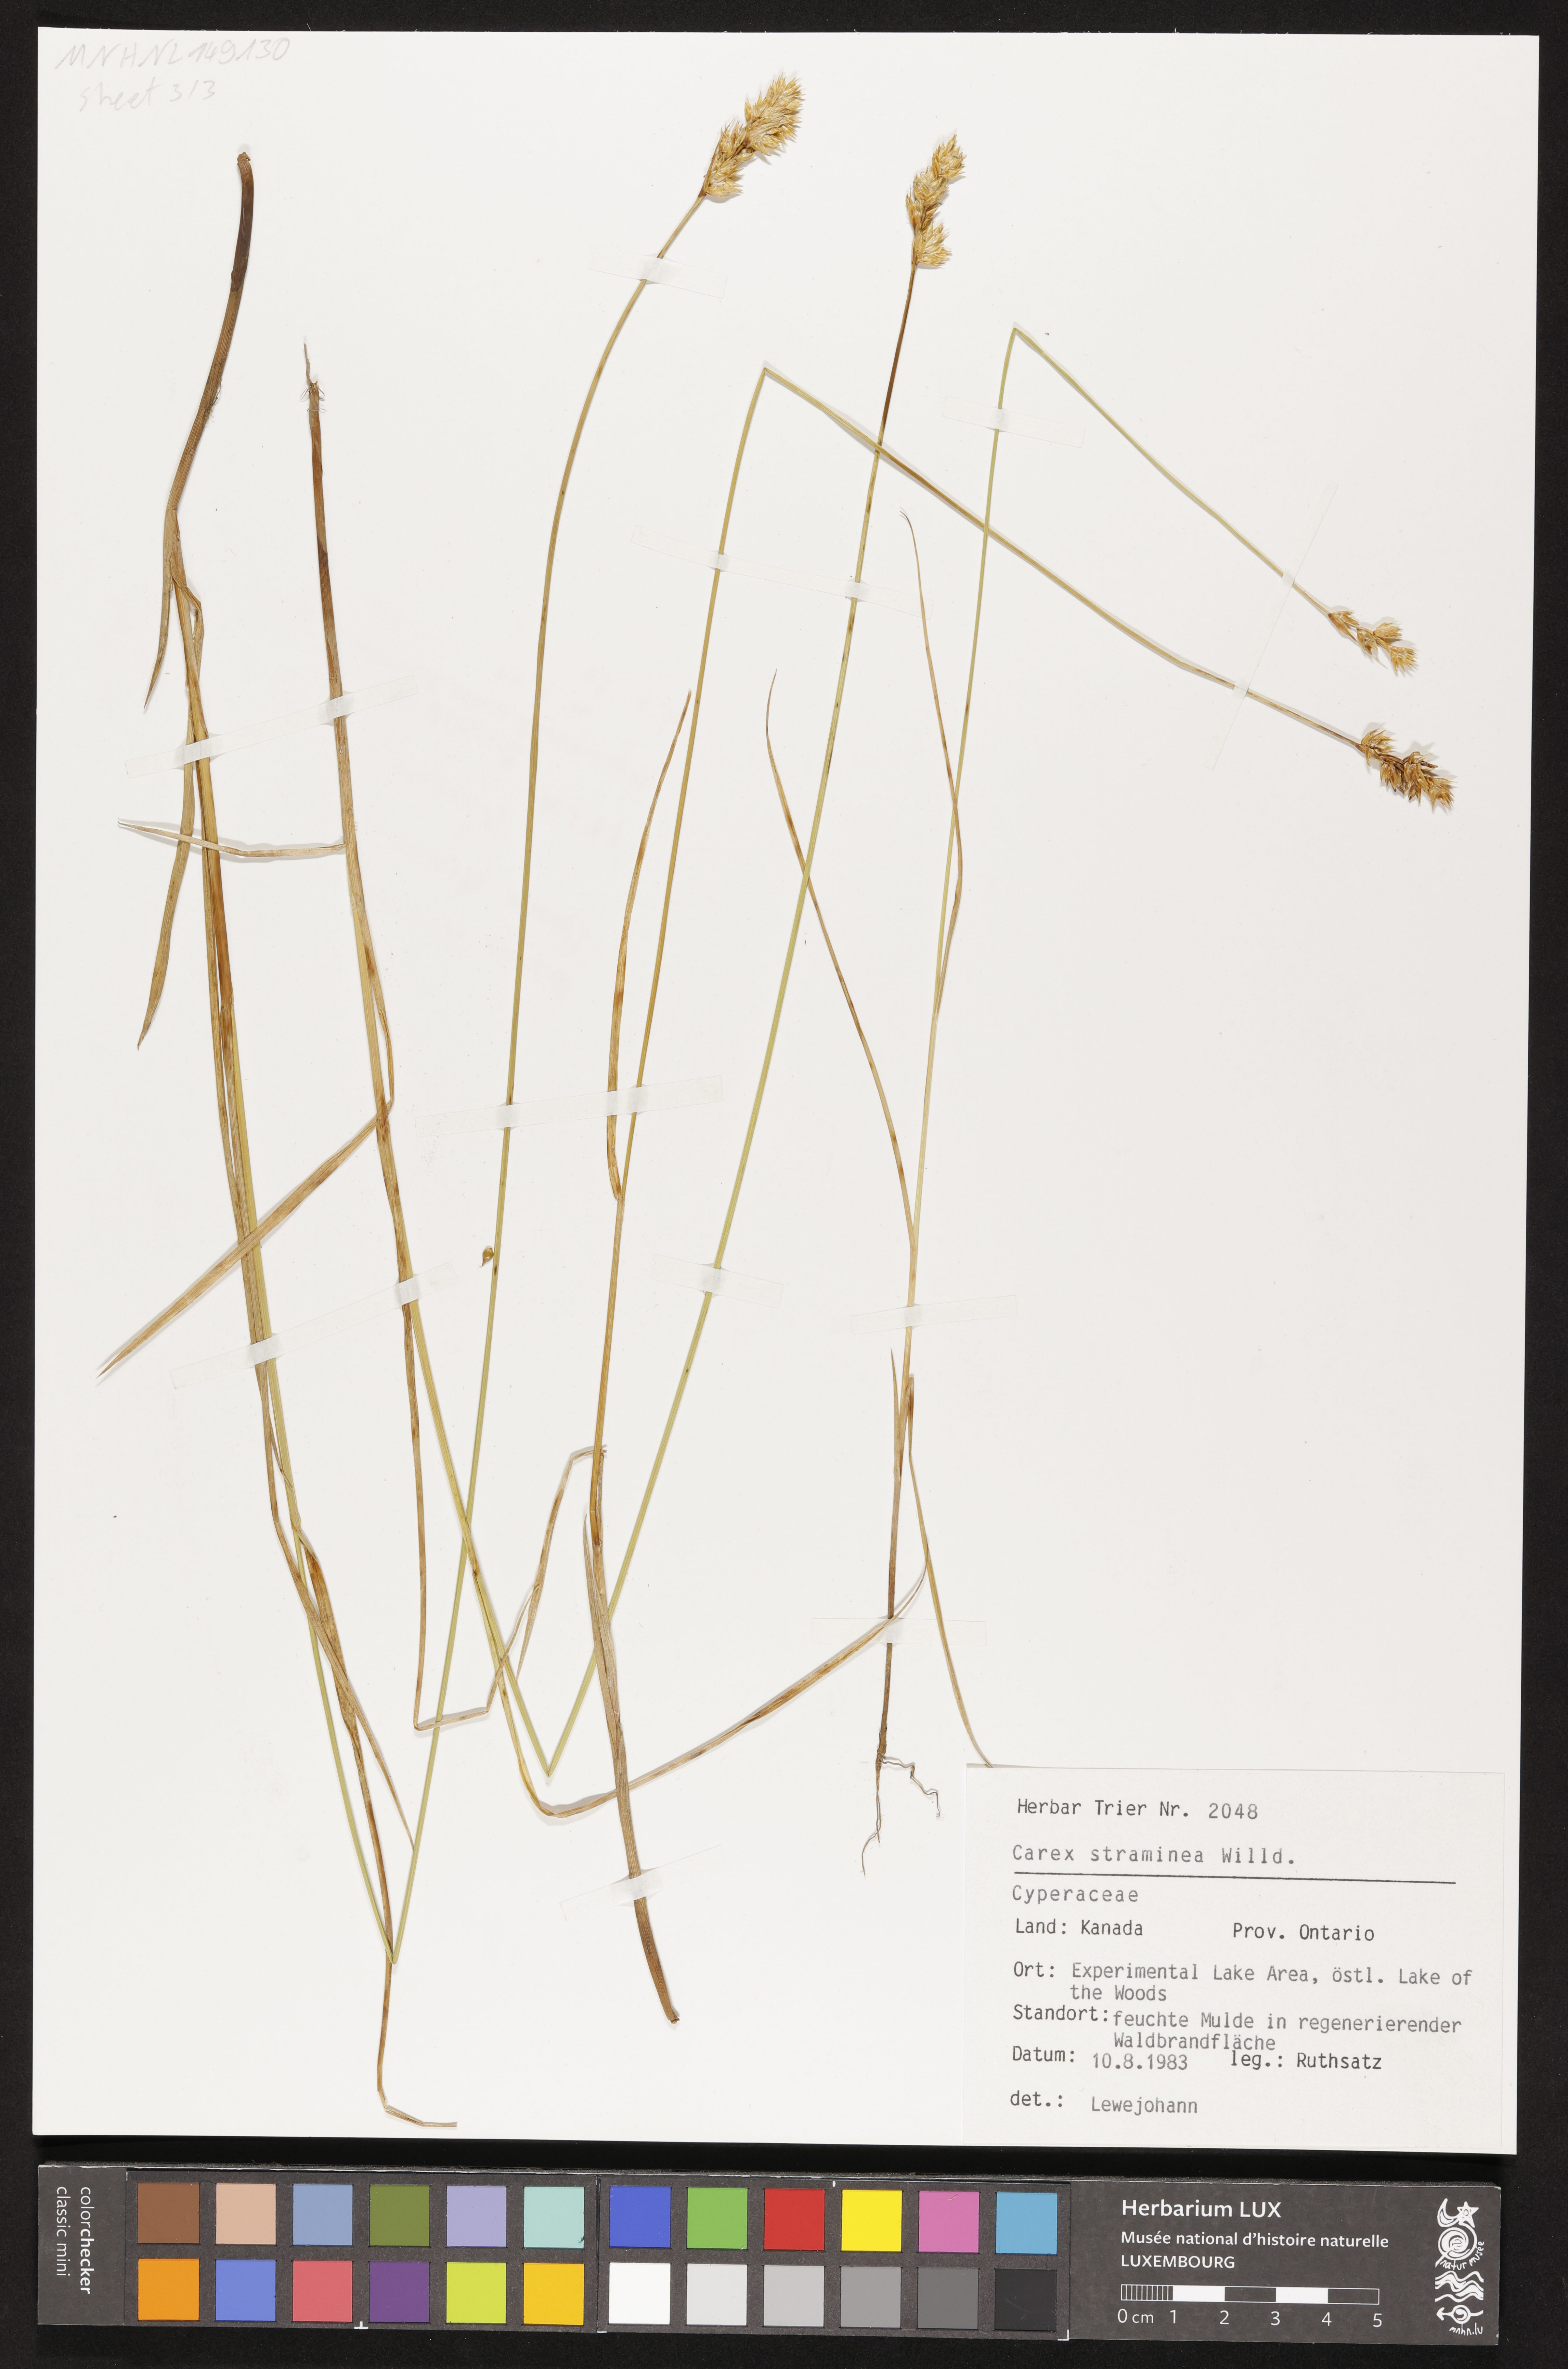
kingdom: Plantae
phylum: Tracheophyta
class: Liliopsida
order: Poales
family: Cyperaceae
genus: Carex
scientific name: Carex straminea
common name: Eastern straw sedge
